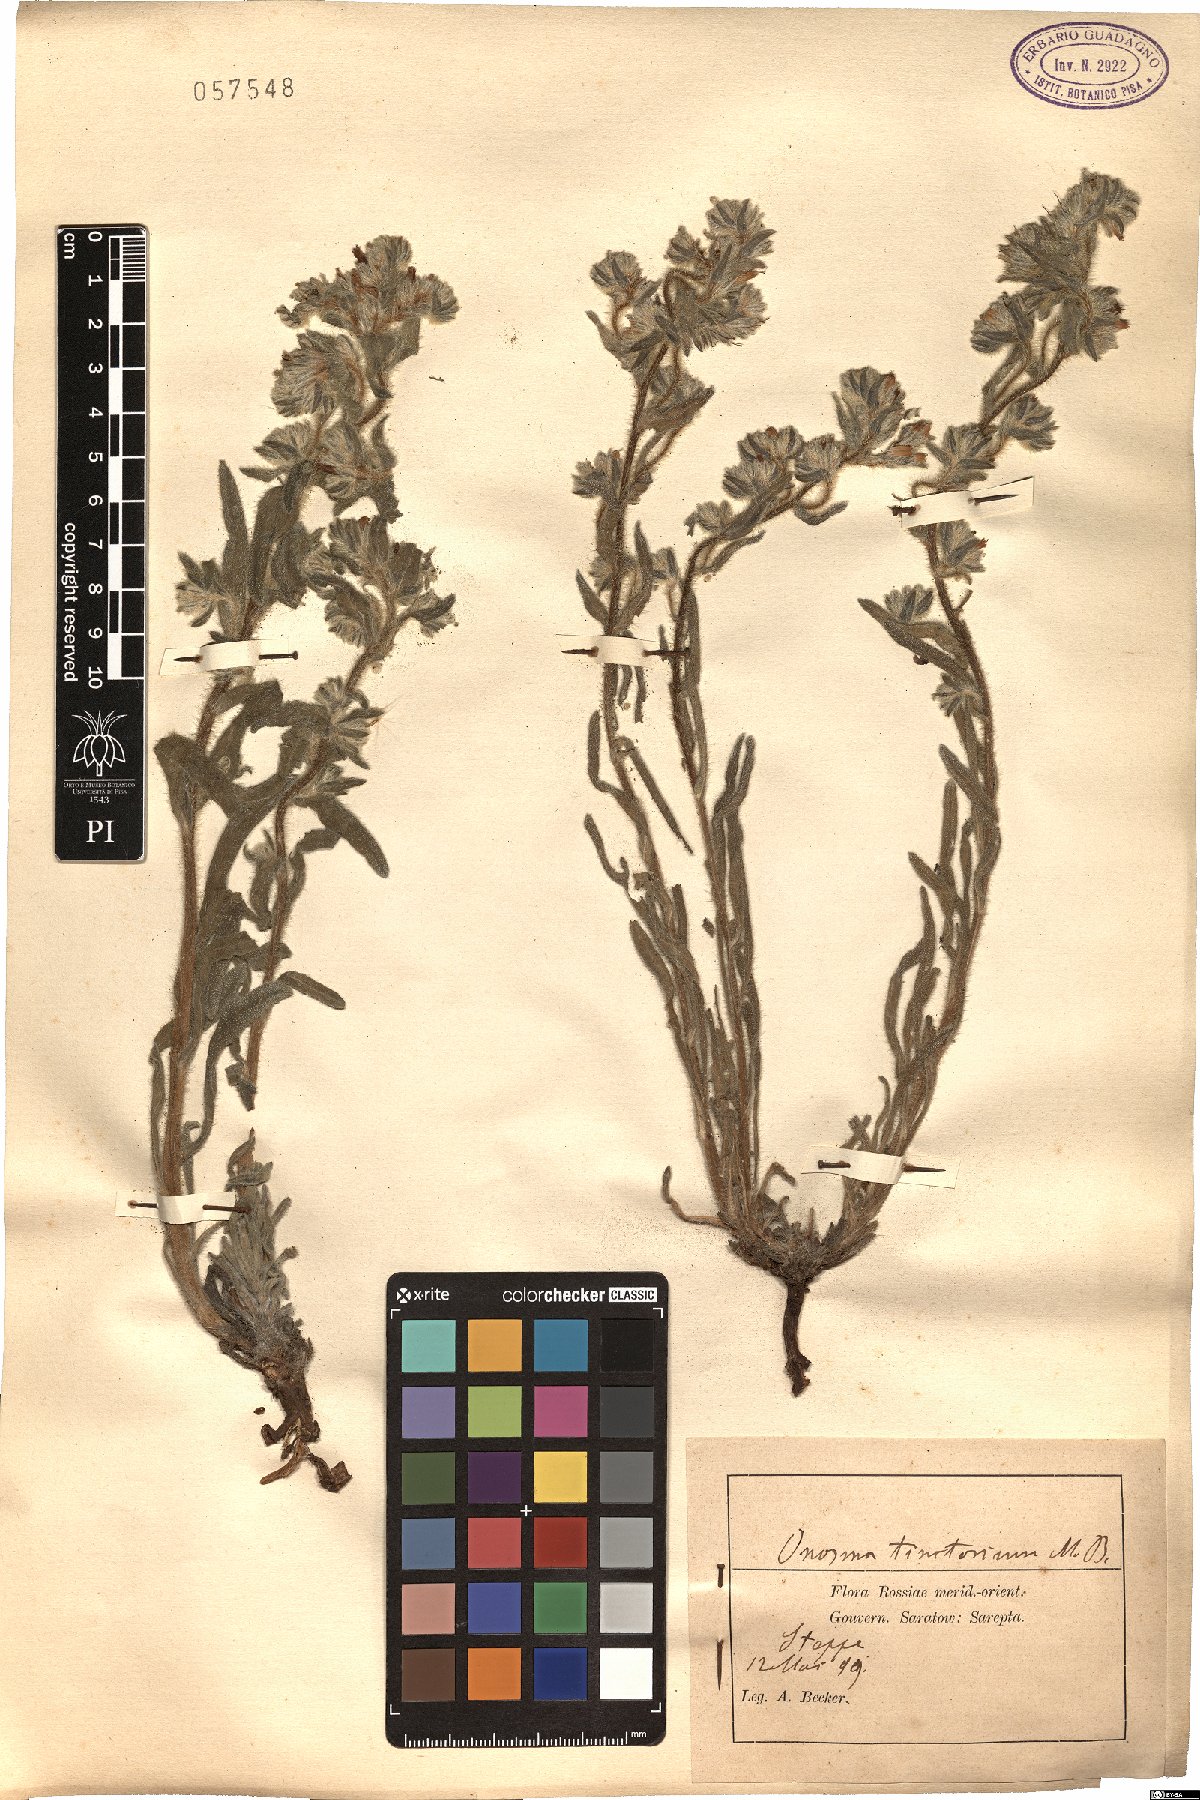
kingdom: Plantae
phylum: Tracheophyta
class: Magnoliopsida
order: Boraginales
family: Boraginaceae
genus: Onosma
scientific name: Onosma tinctoria
